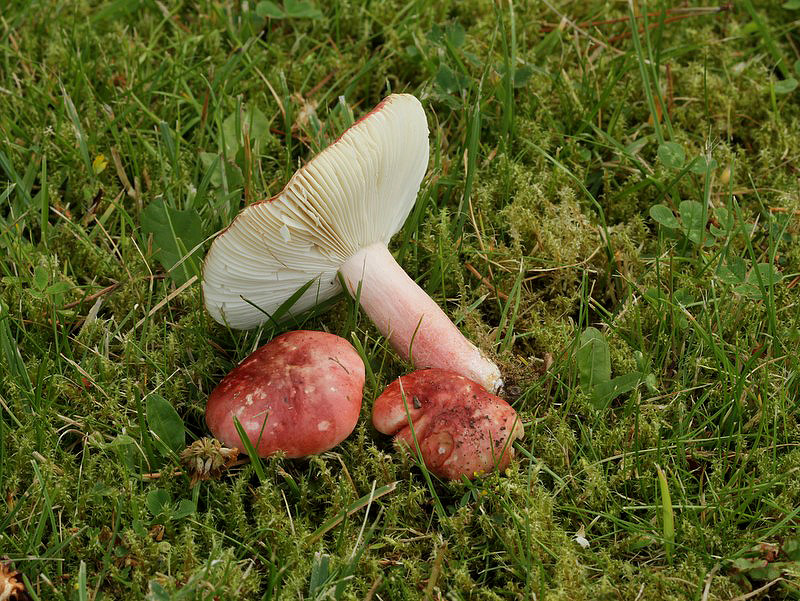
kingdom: Fungi
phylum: Basidiomycota
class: Agaricomycetes
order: Russulales
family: Russulaceae
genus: Russula
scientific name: Russula sanguinea
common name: blodrød skørhat
